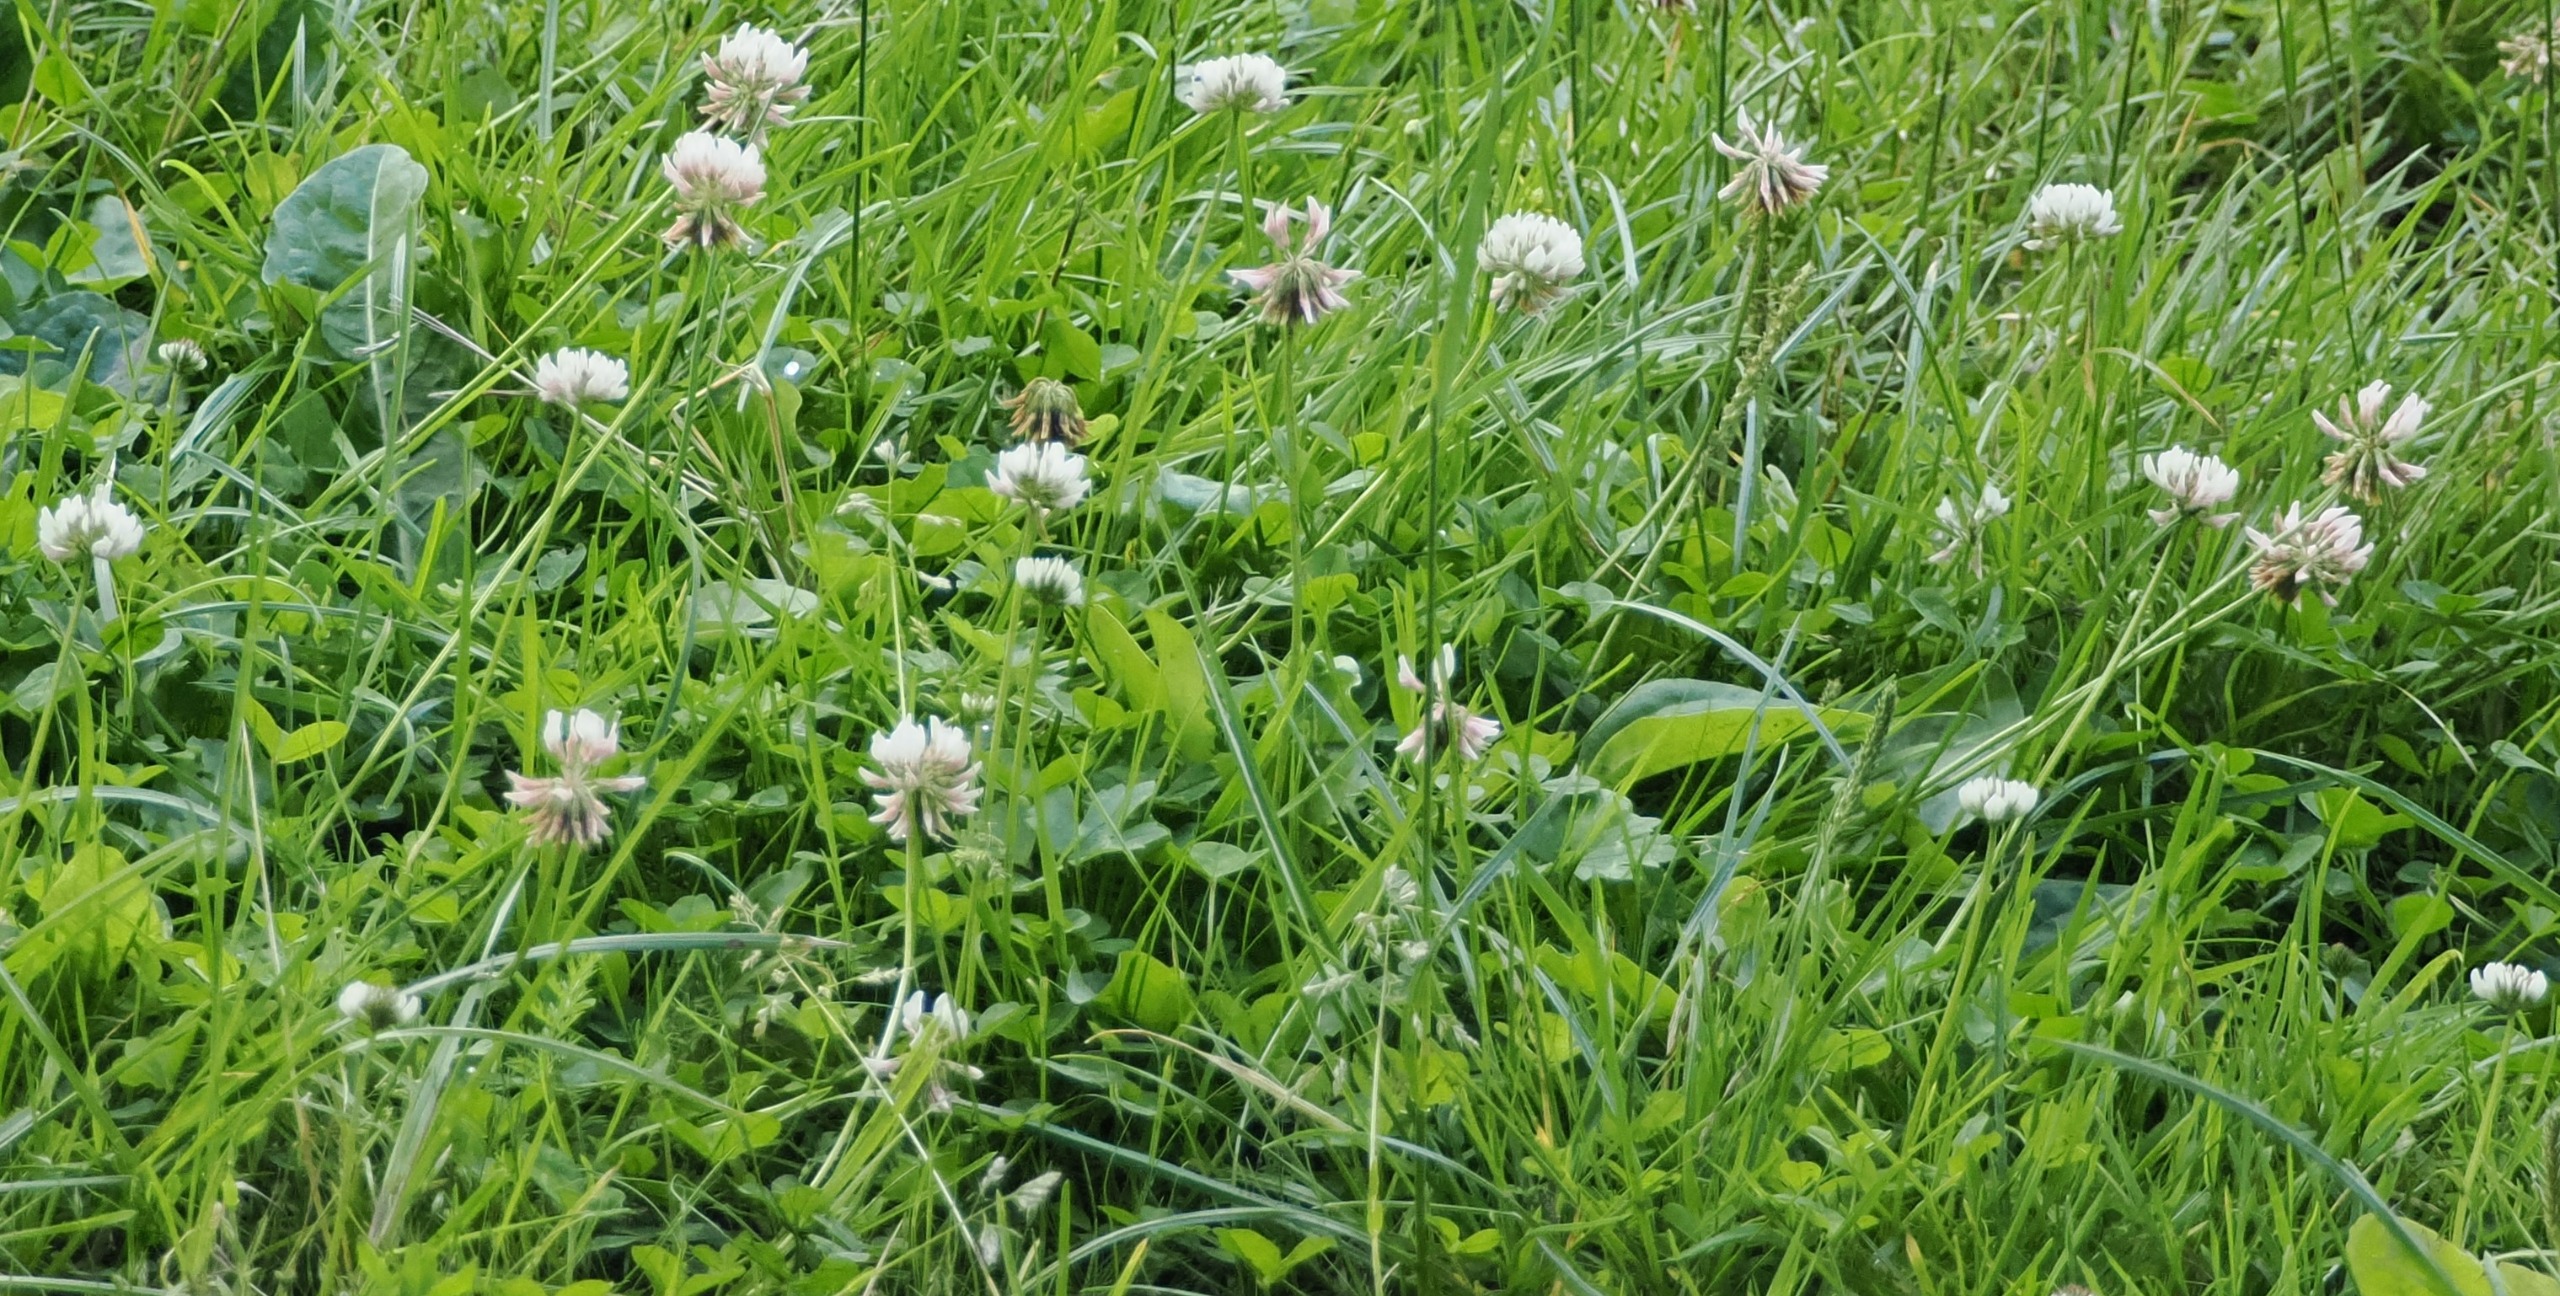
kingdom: Plantae
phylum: Tracheophyta
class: Magnoliopsida
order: Fabales
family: Fabaceae
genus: Trifolium
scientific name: Trifolium repens
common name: Hvid-kløver
